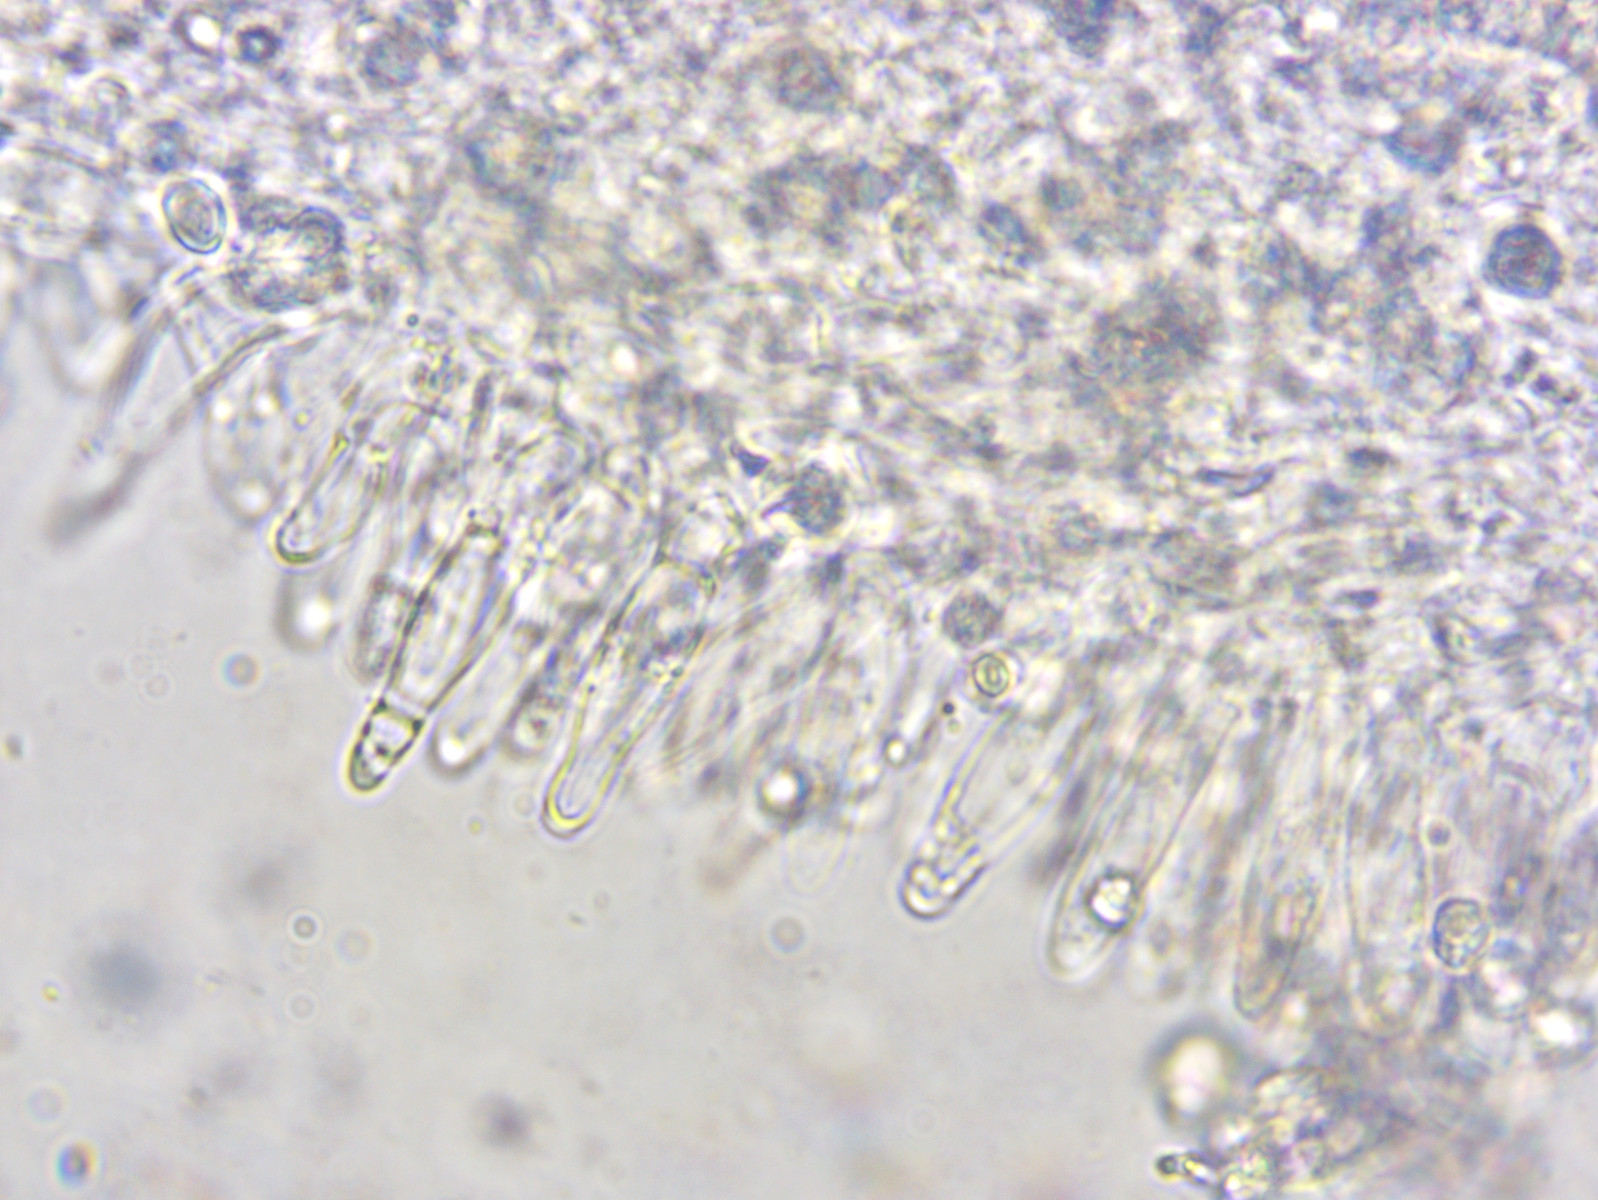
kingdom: Fungi
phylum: Basidiomycota
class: Agaricomycetes
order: Agaricales
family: Mycenaceae
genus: Mycena
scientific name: Mycena amicta
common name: iris-huesvamp
